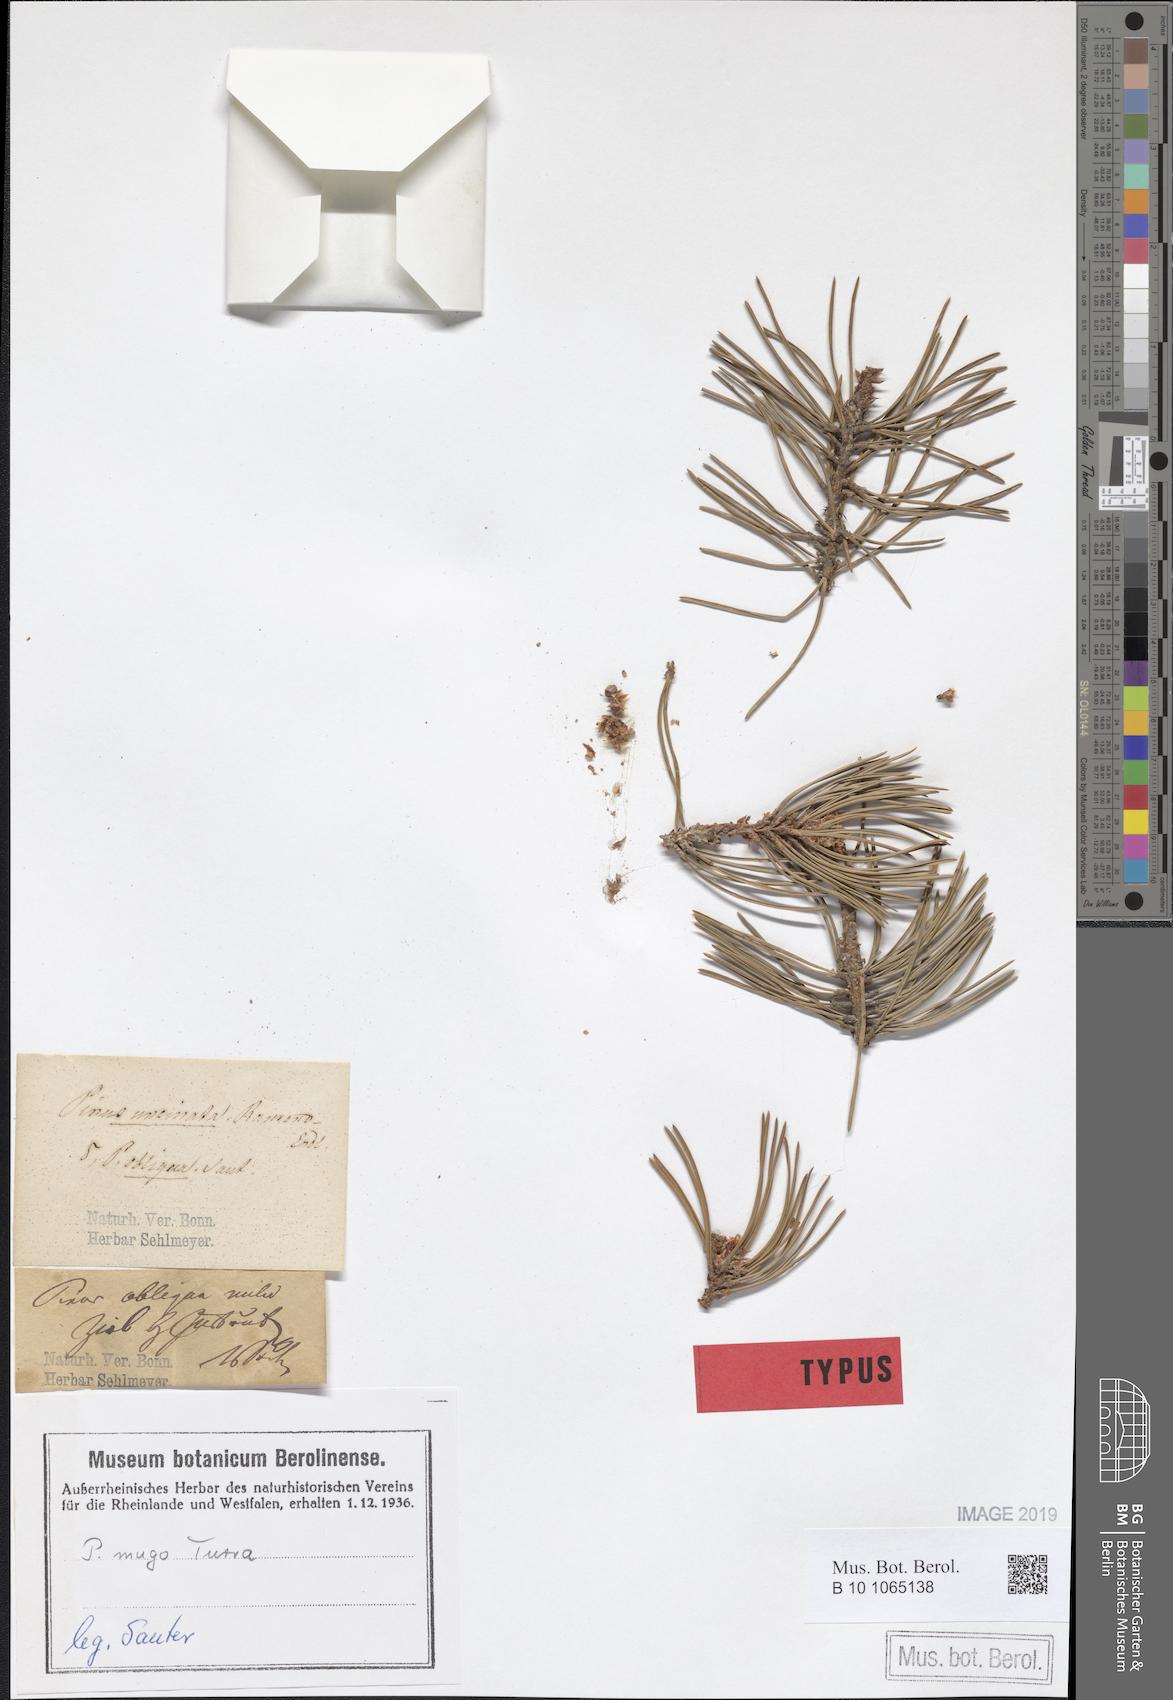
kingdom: Plantae
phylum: Tracheophyta
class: Pinopsida
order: Pinales
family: Pinaceae
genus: Pinus
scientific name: Pinus mugo
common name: Mugo pine
